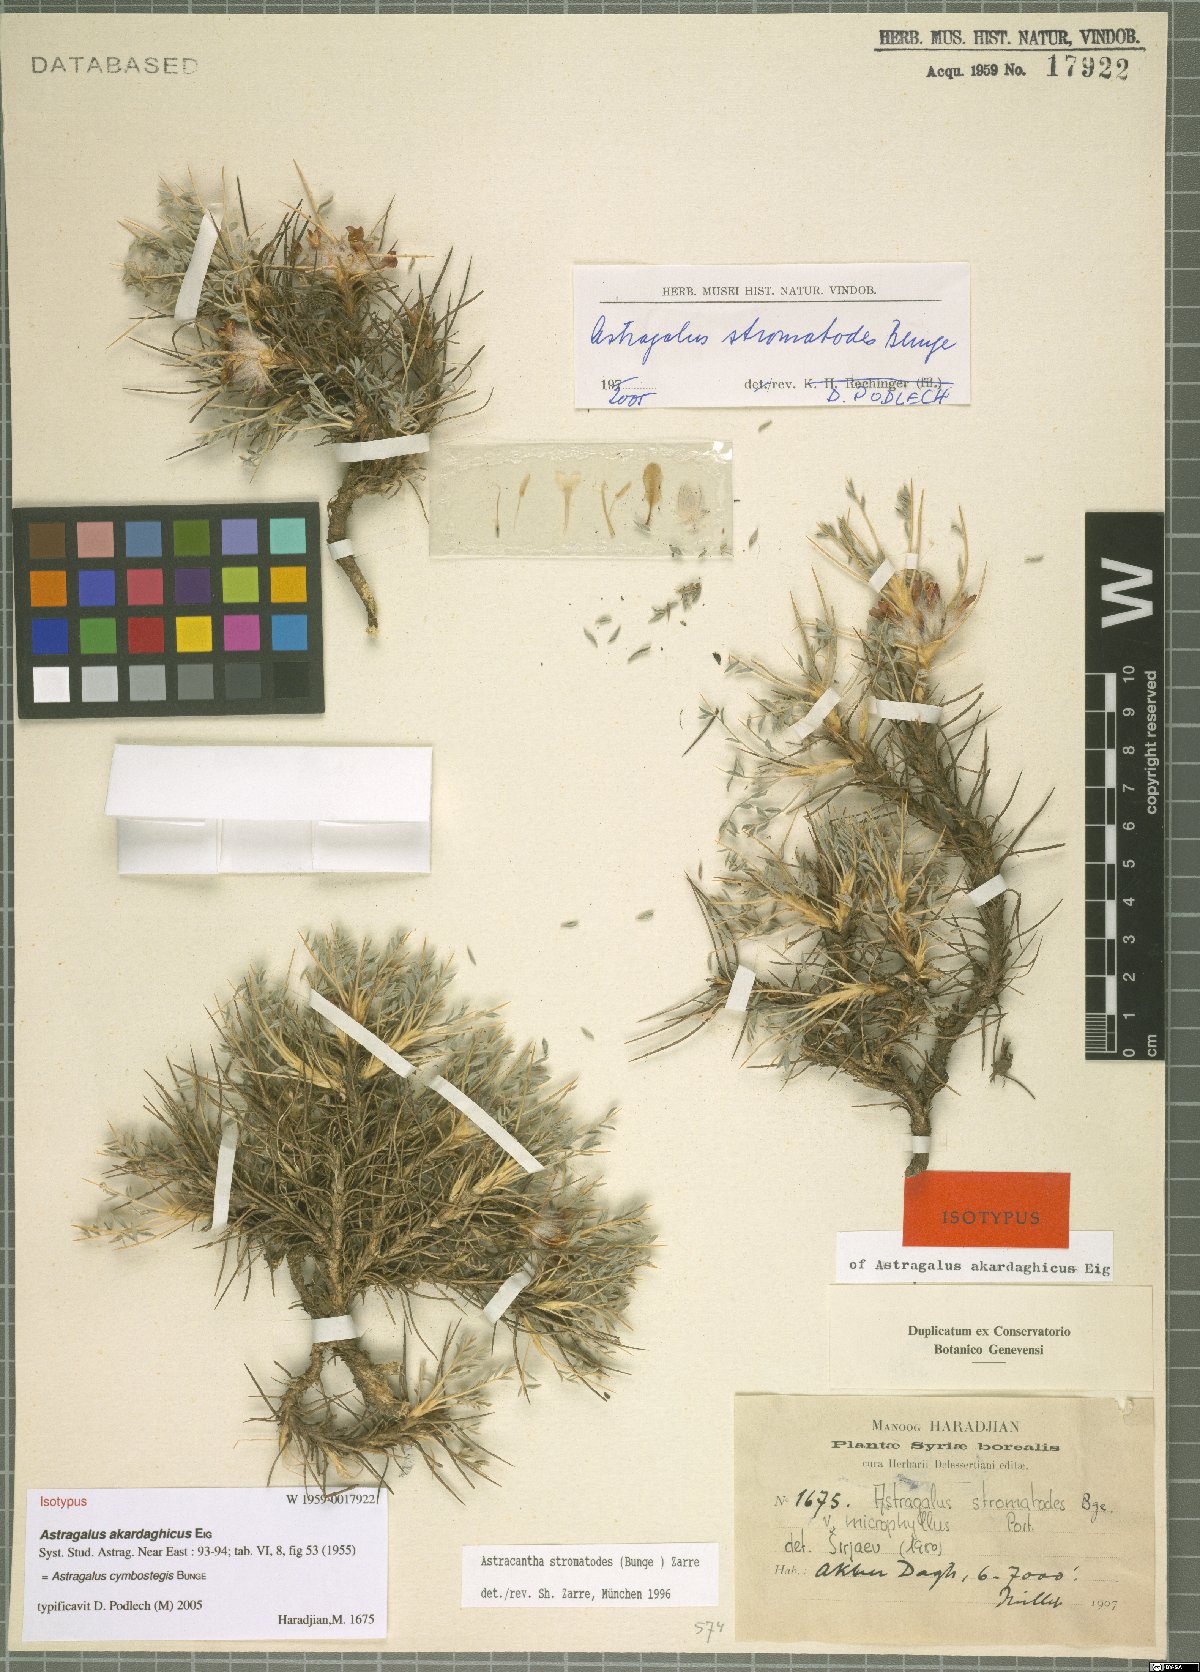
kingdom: Plantae
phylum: Tracheophyta
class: Magnoliopsida
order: Fabales
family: Fabaceae
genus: Astragalus
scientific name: Astragalus cymbostegis
